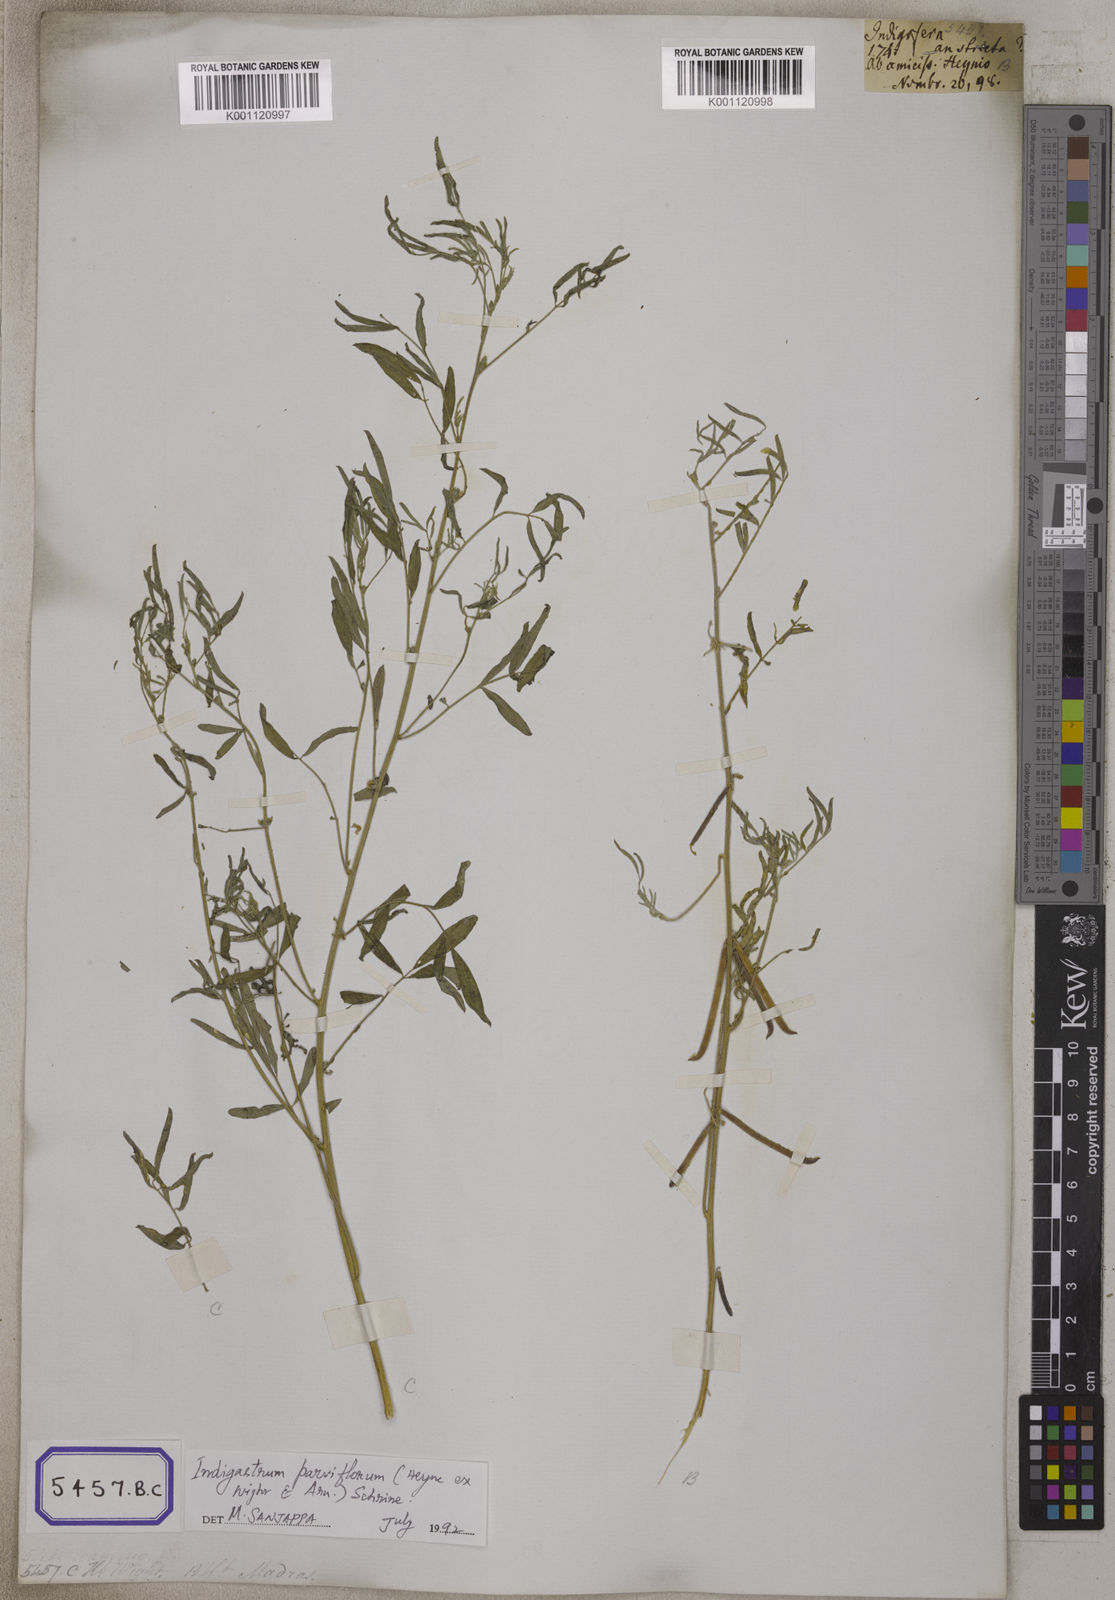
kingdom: Plantae
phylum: Tracheophyta
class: Magnoliopsida
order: Fabales
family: Fabaceae
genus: Indigastrum
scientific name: Indigastrum parviflorum
